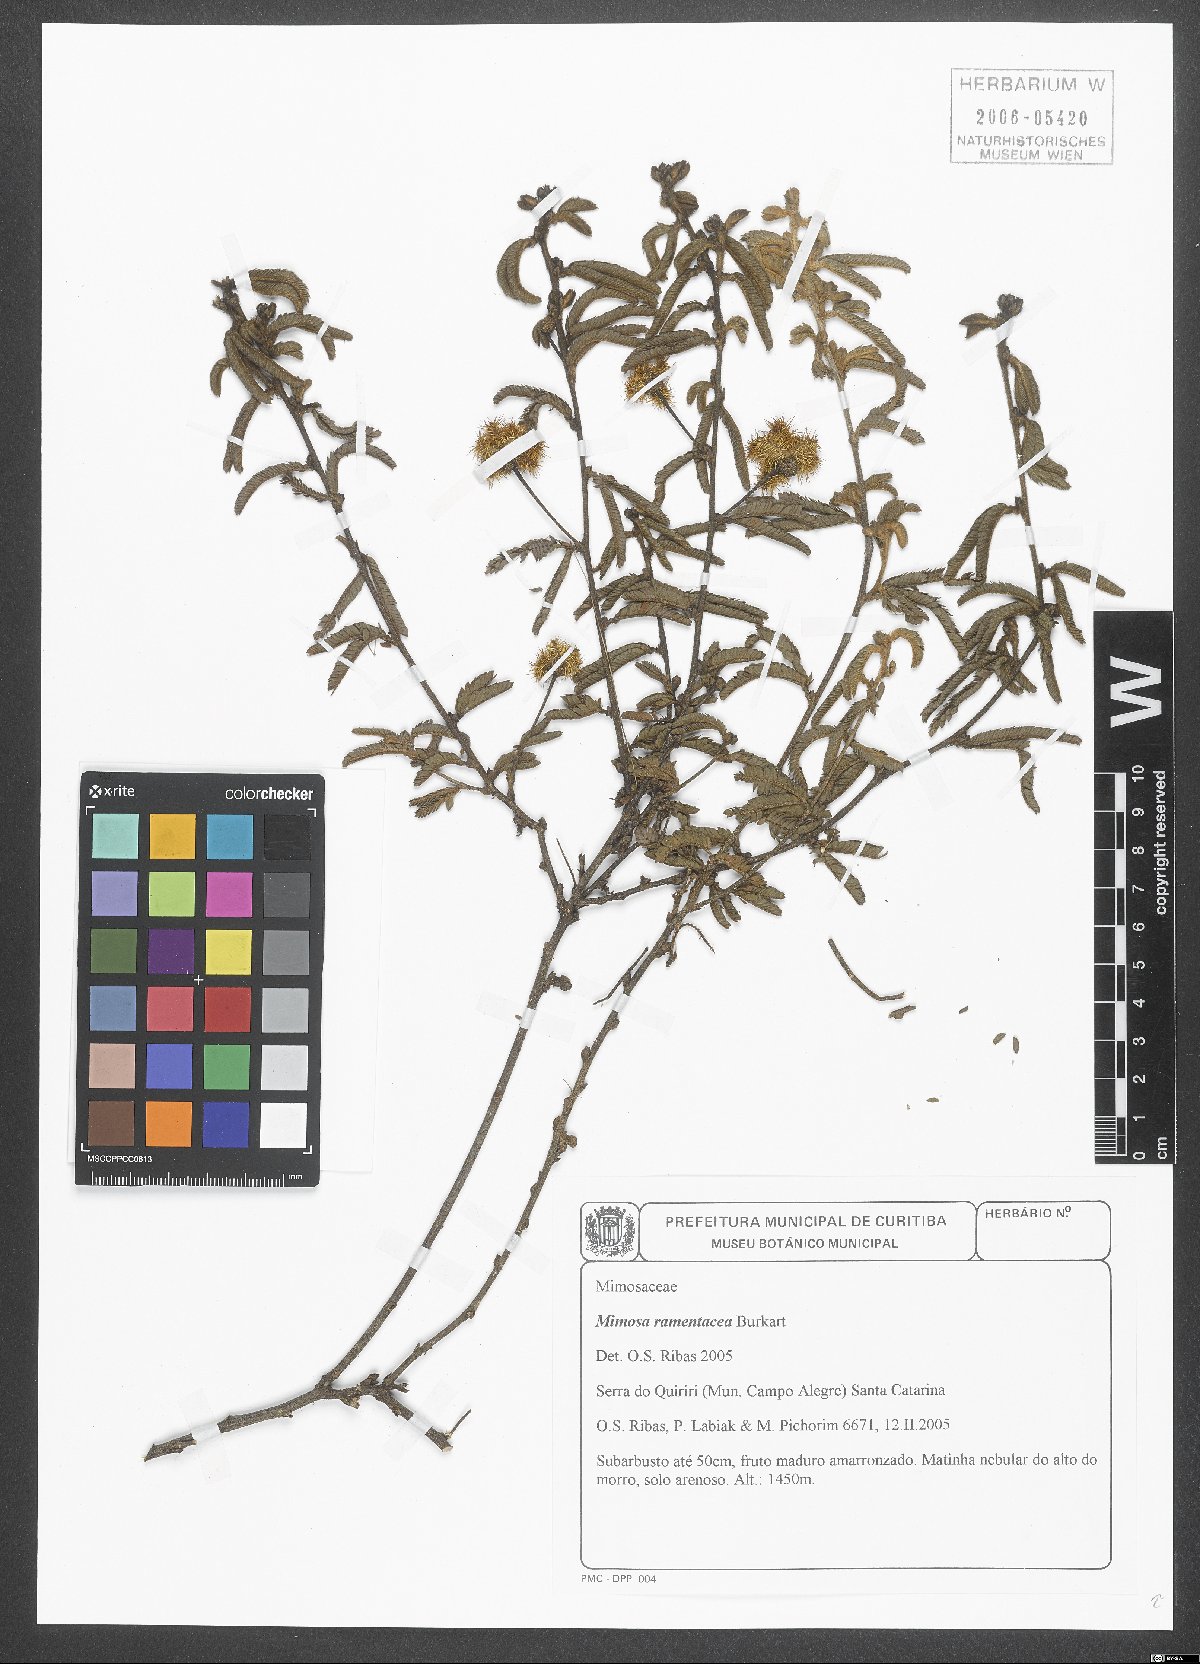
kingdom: Plantae
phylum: Tracheophyta
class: Magnoliopsida
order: Fabales
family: Fabaceae
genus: Mimosa
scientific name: Mimosa ramentacea
